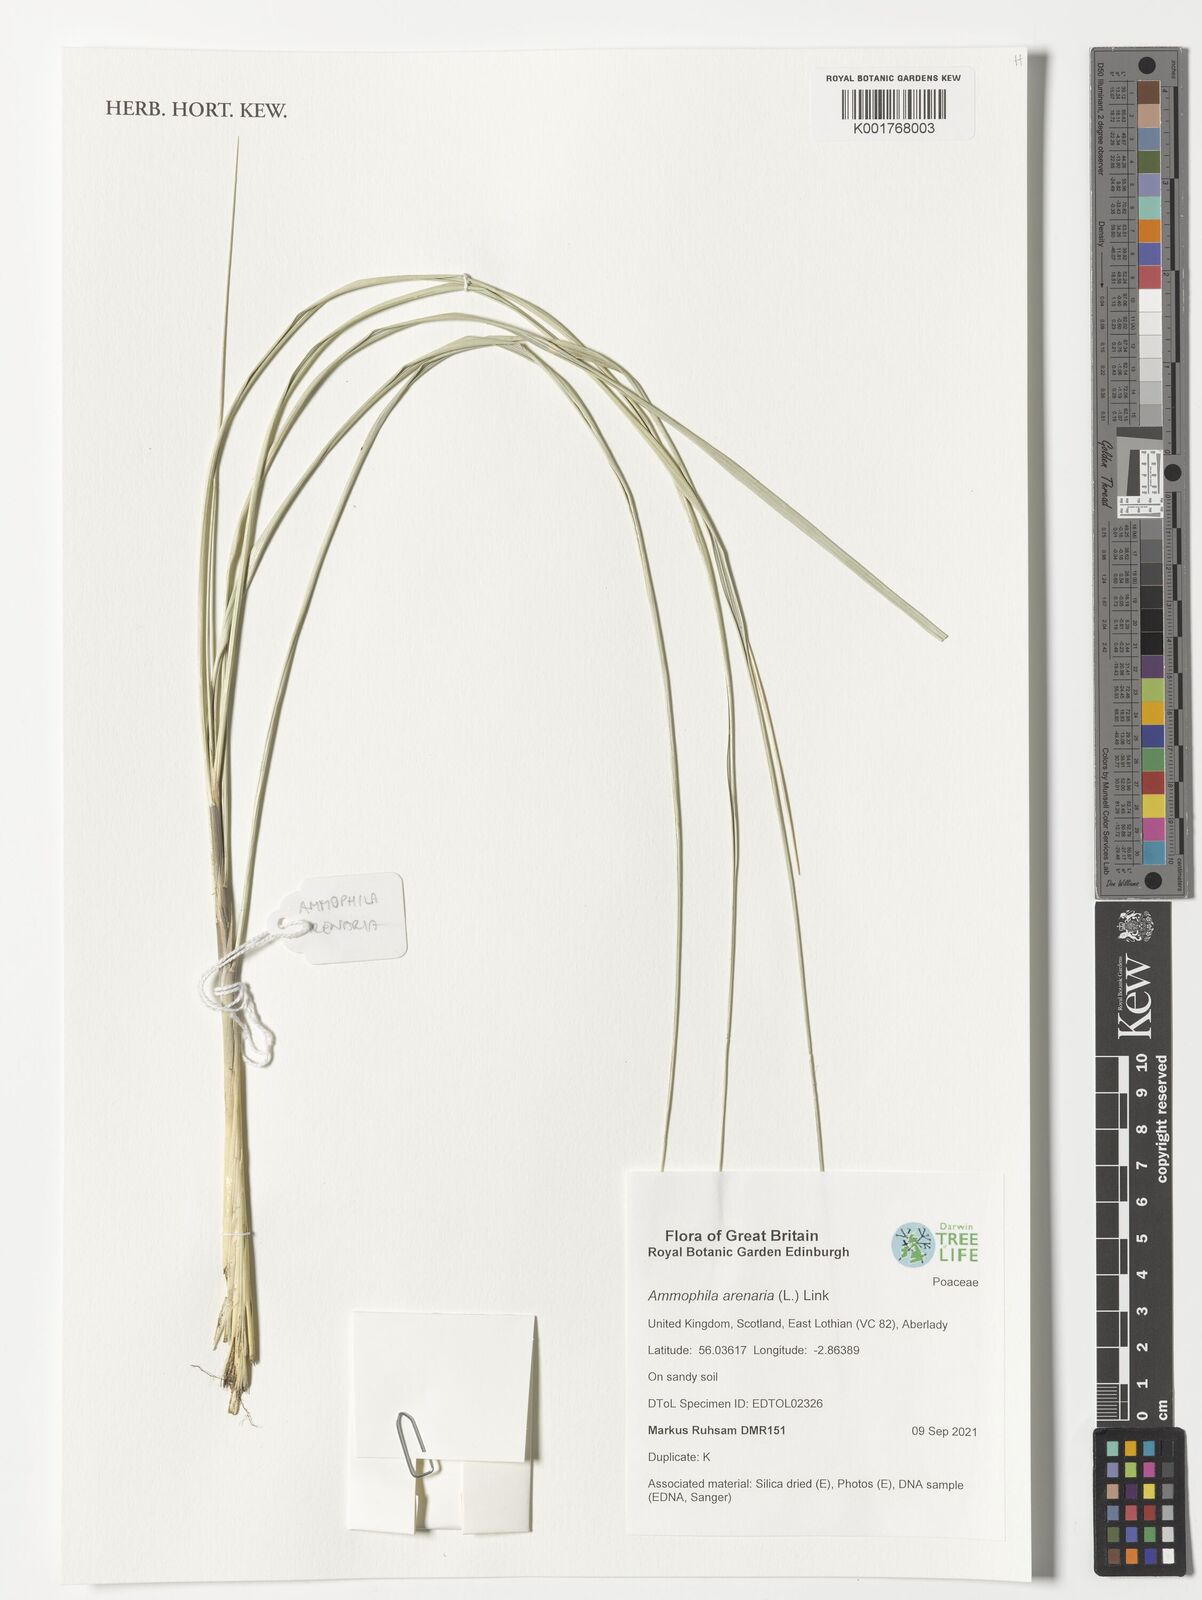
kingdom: Plantae
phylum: Tracheophyta
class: Liliopsida
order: Poales
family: Poaceae
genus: Calamagrostis
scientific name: Calamagrostis arenaria
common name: European beachgrass
